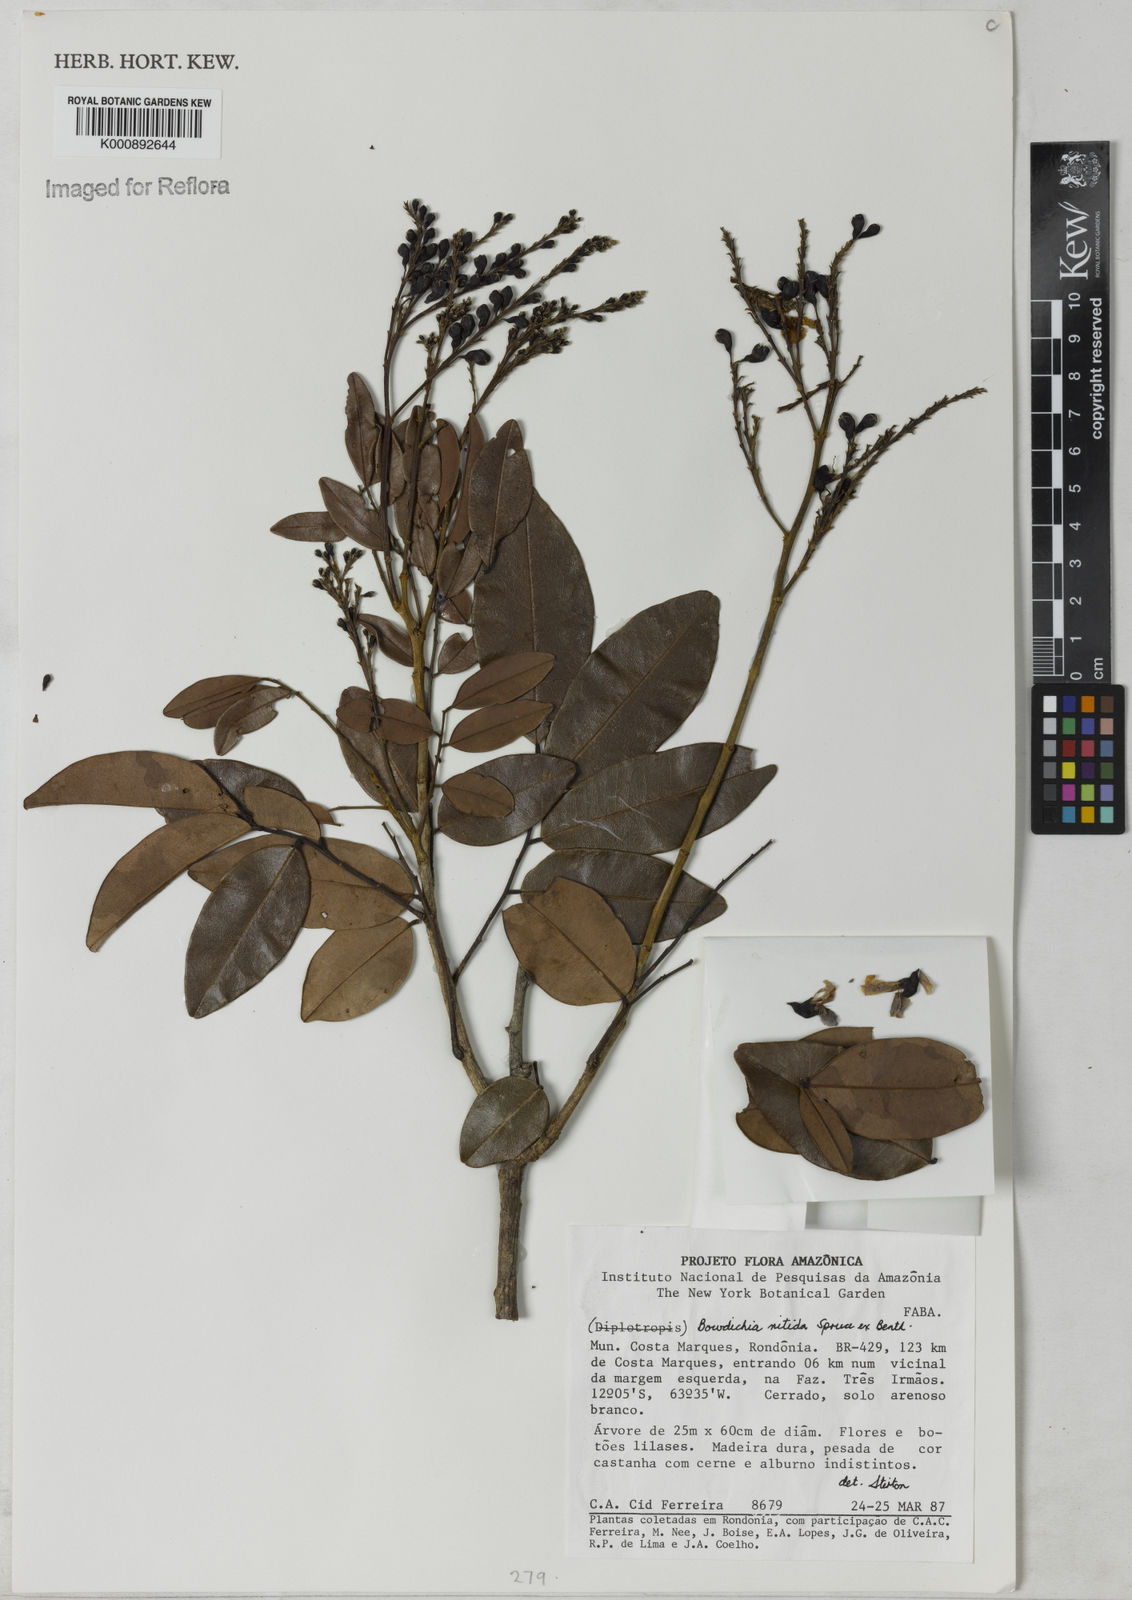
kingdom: Plantae
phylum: Tracheophyta
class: Magnoliopsida
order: Fabales
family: Fabaceae
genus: Bowdichia
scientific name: Bowdichia nitida
